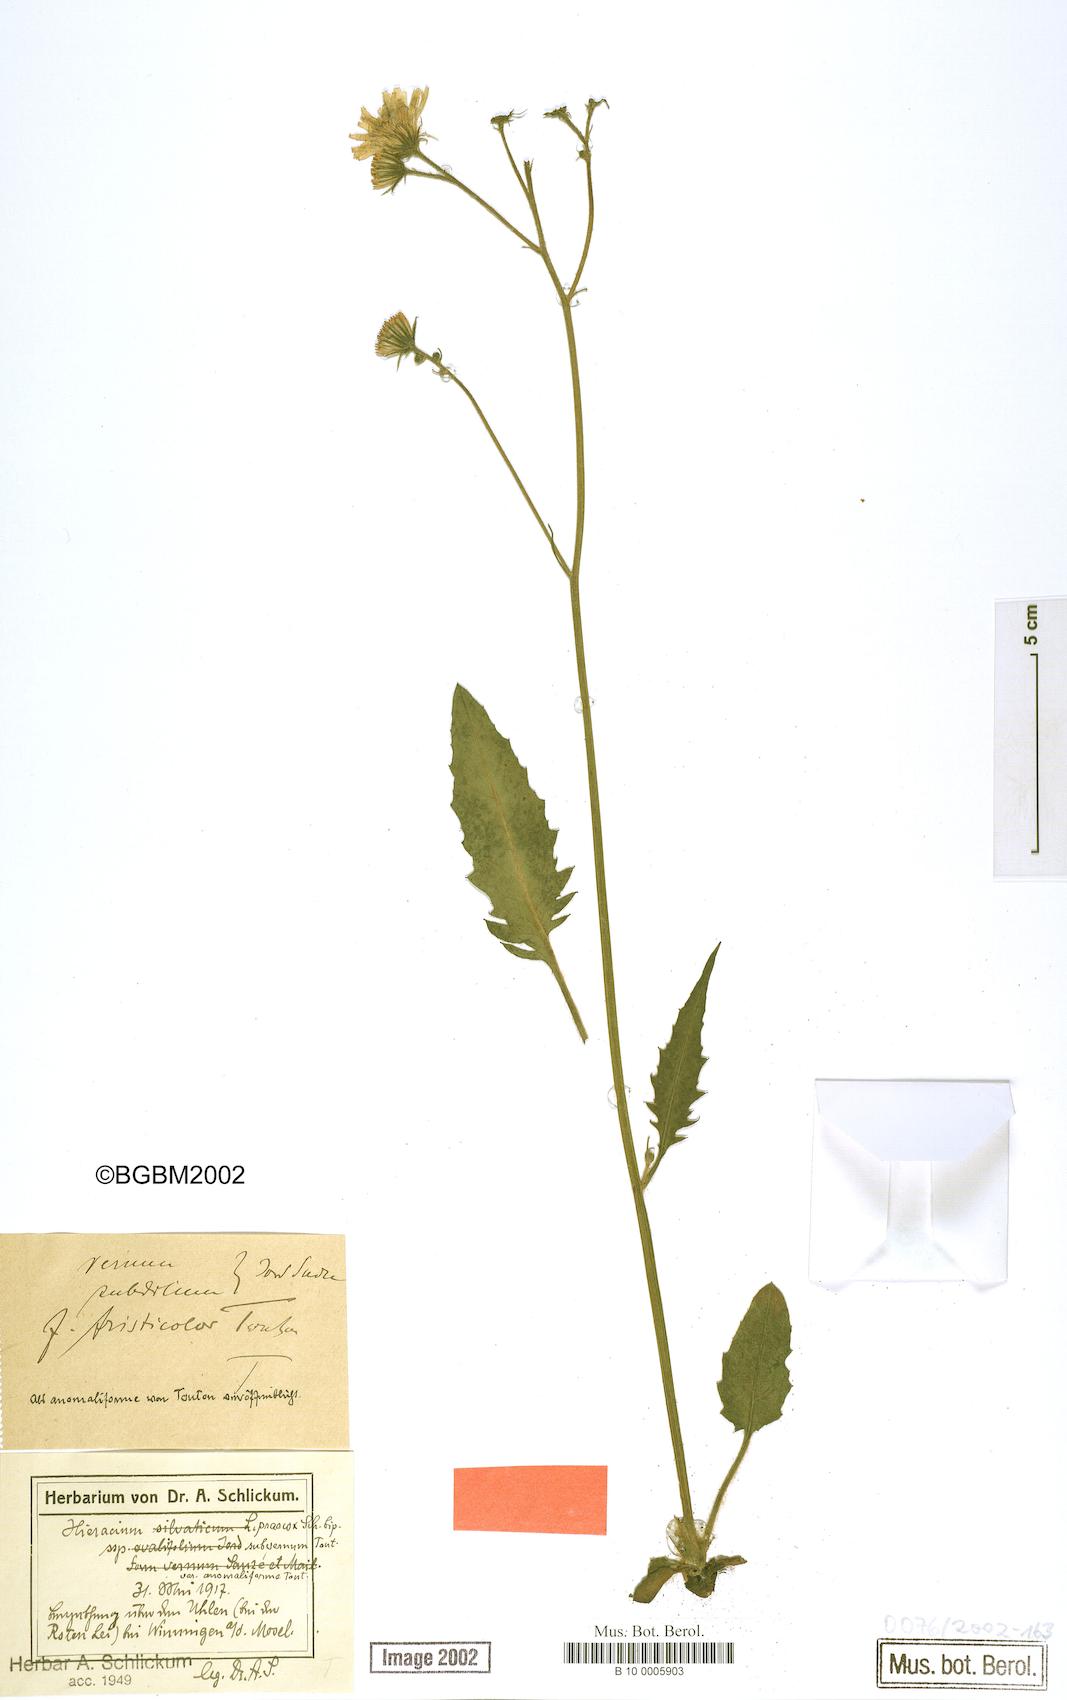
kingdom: Plantae
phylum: Tracheophyta
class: Magnoliopsida
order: Asterales
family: Asteraceae
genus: Hieracium
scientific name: Hieracium praecox
